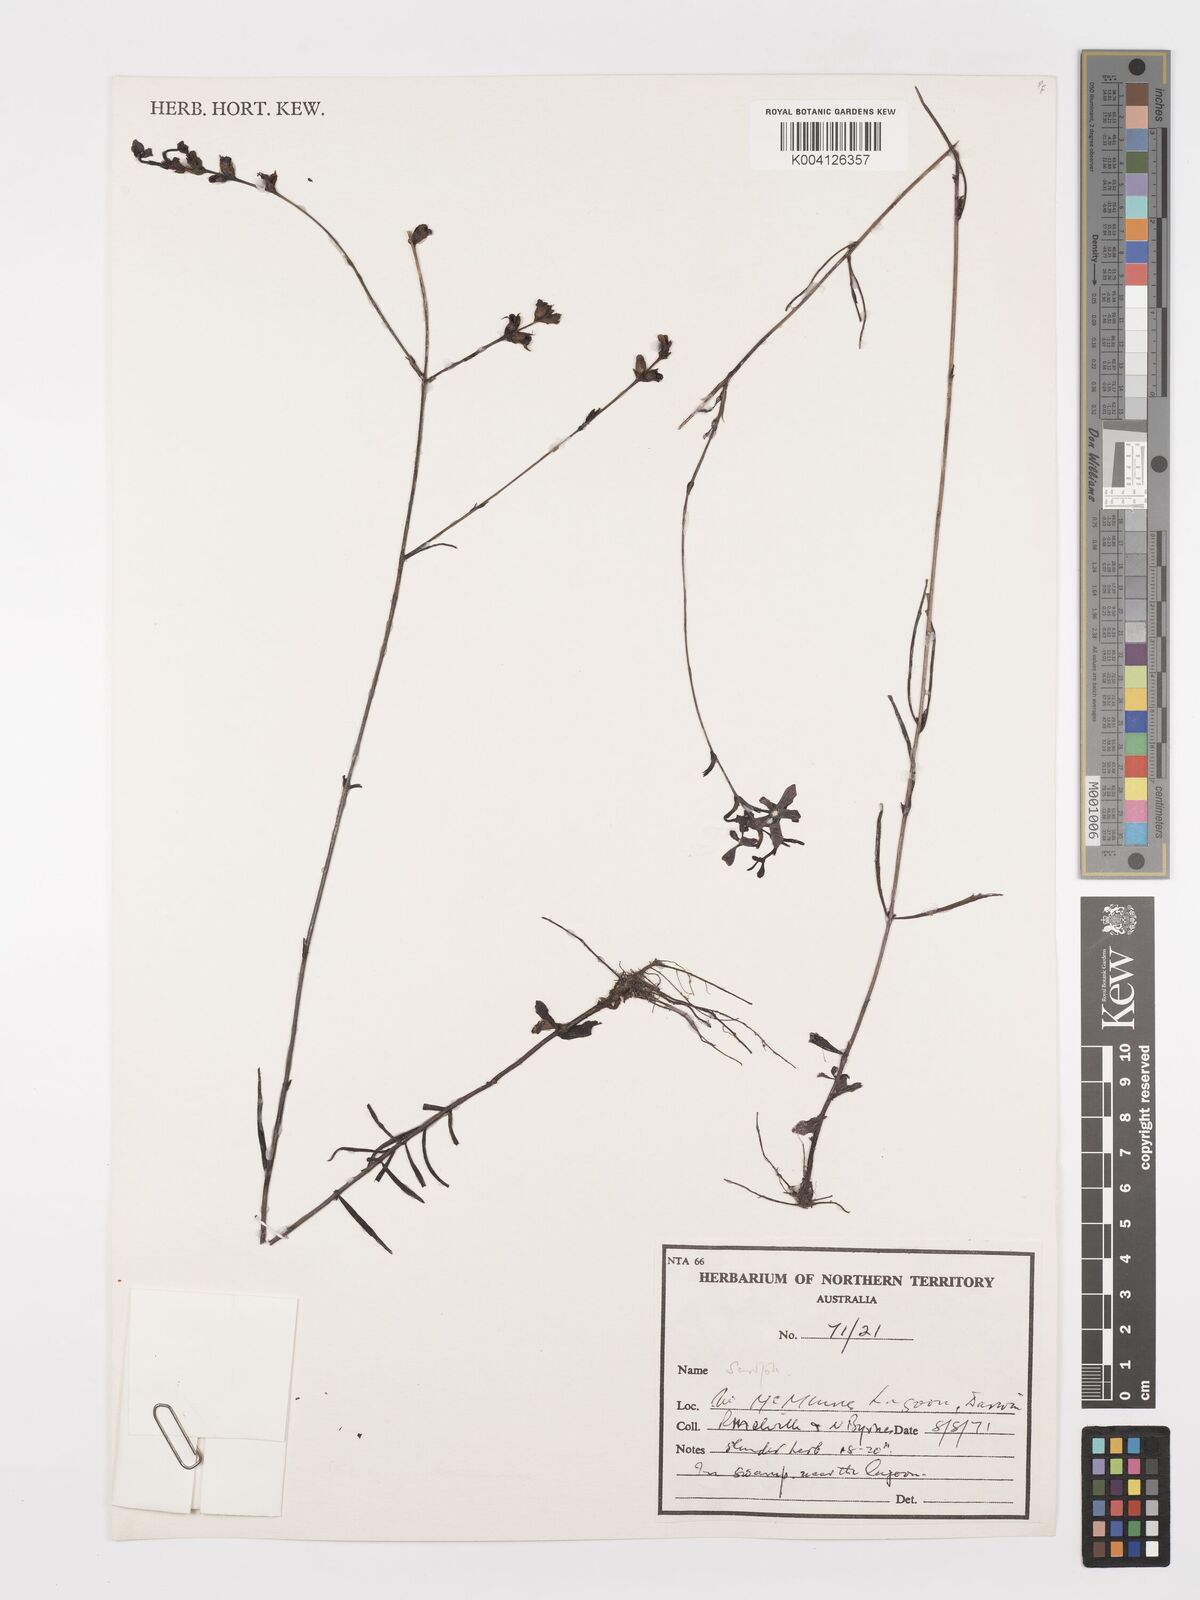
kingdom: Plantae
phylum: Tracheophyta
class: Magnoliopsida
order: Lamiales
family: Orobanchaceae
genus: Buchnera
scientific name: Buchnera ciliata
